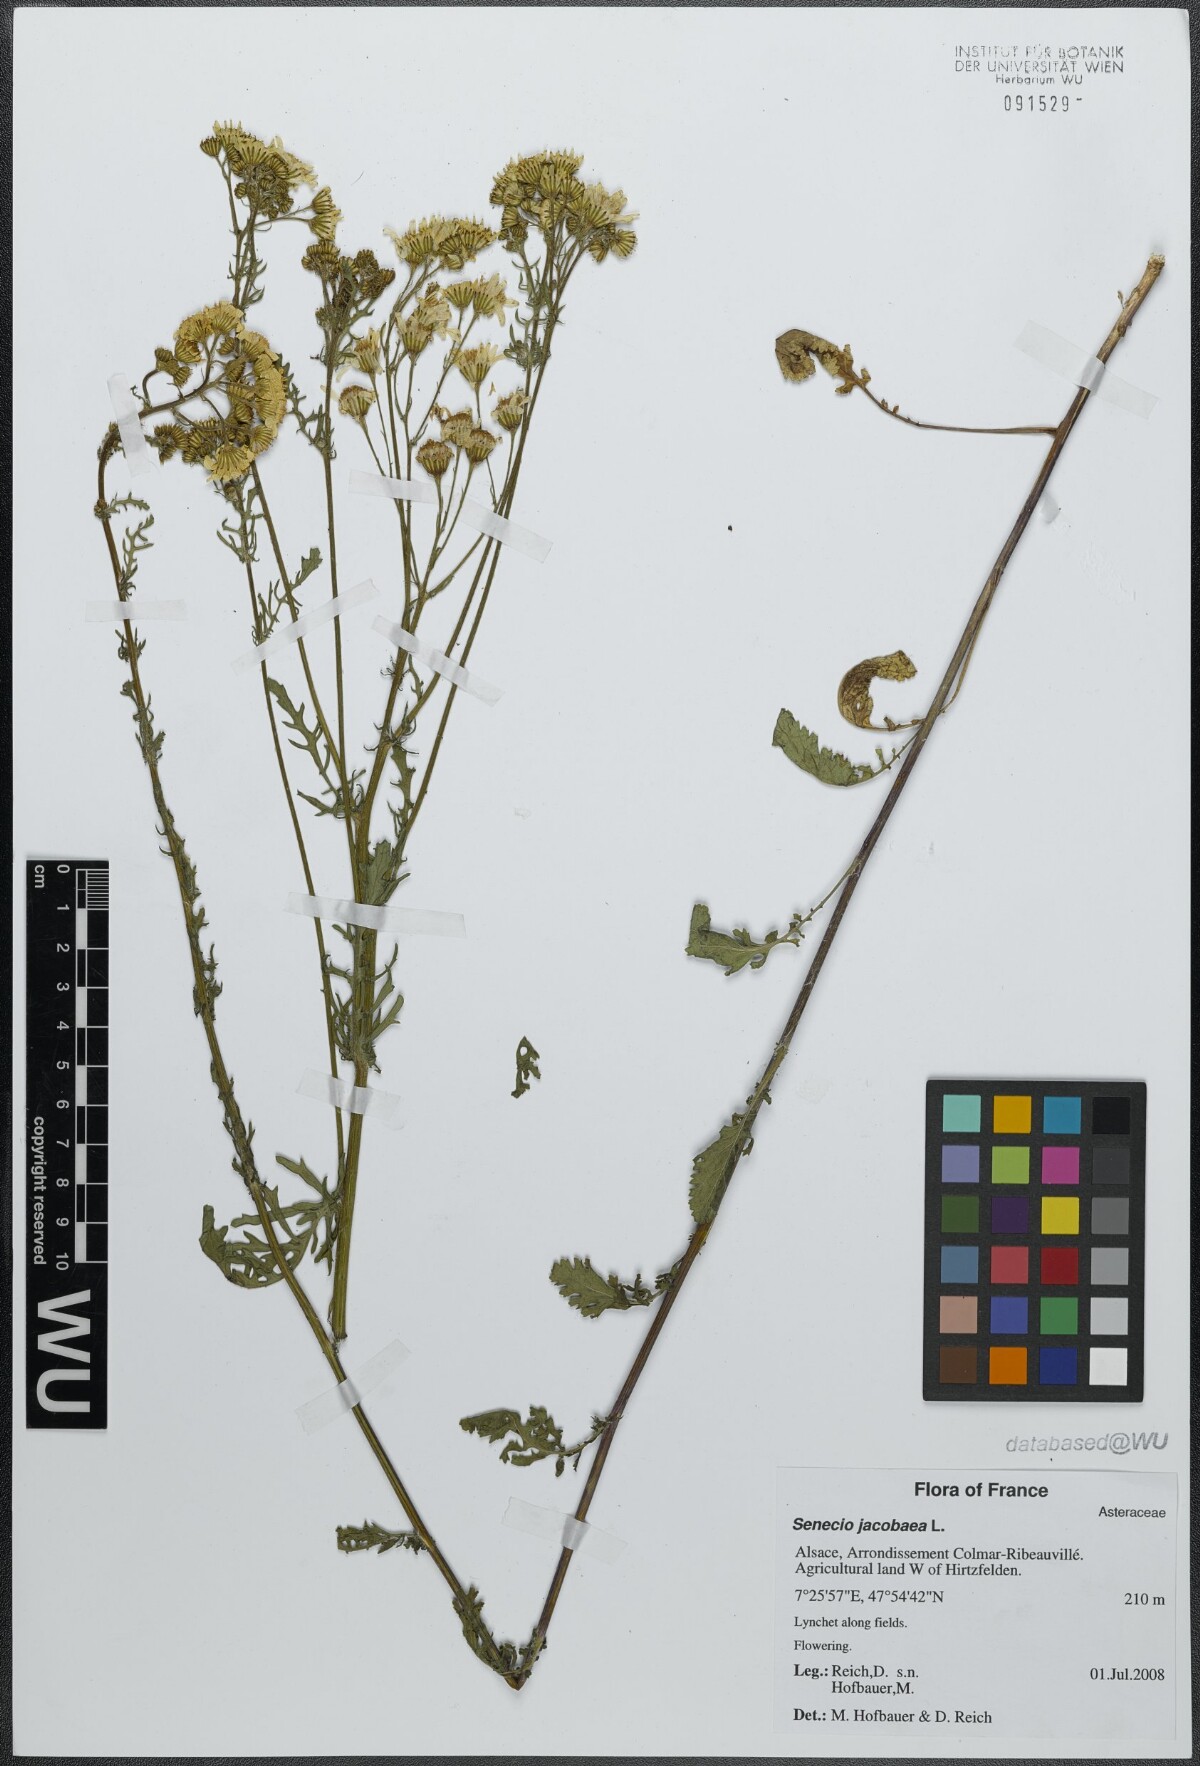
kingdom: Plantae
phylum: Tracheophyta
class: Magnoliopsida
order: Asterales
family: Asteraceae
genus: Jacobaea
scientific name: Jacobaea vulgaris
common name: Stinking willie
